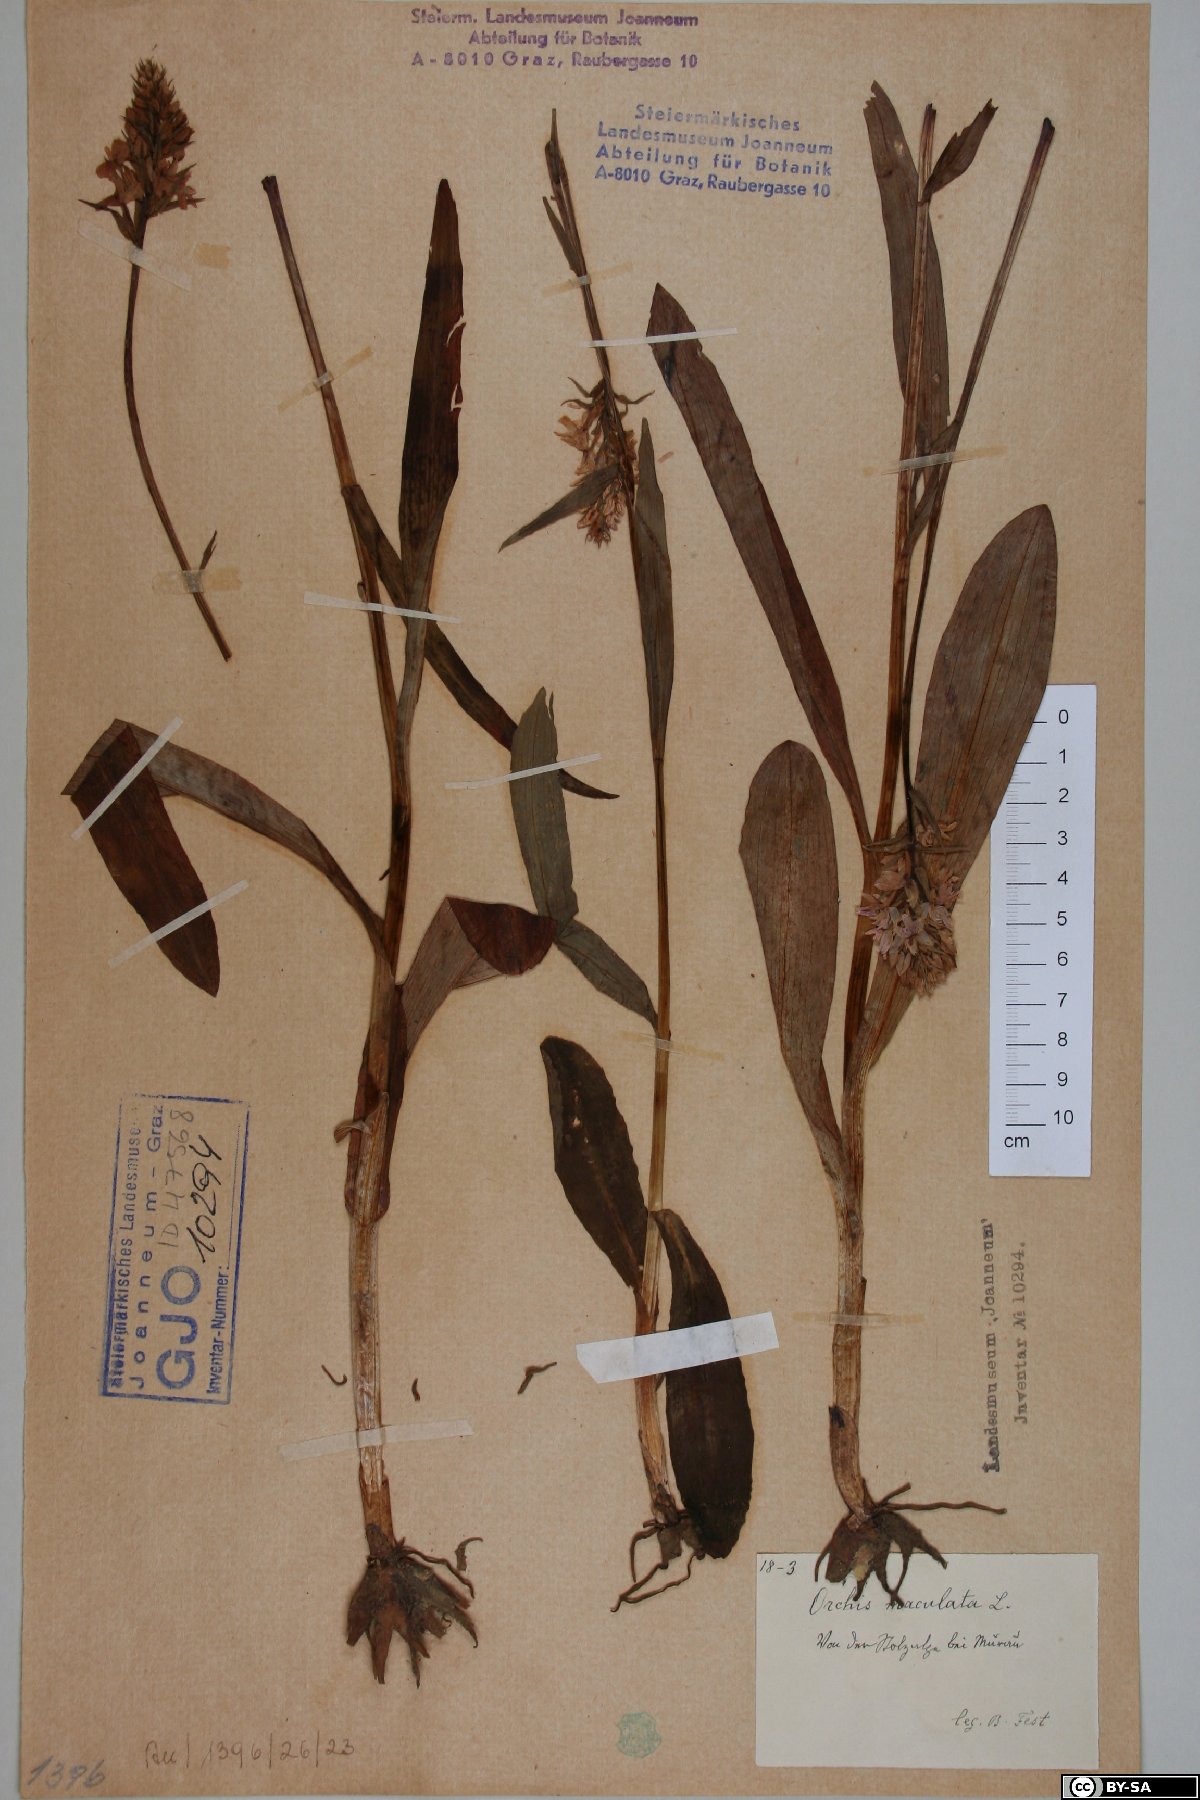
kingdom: Plantae
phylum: Tracheophyta
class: Liliopsida
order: Asparagales
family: Orchidaceae
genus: Dactylorhiza
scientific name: Dactylorhiza maculata
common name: Heath spotted-orchid
